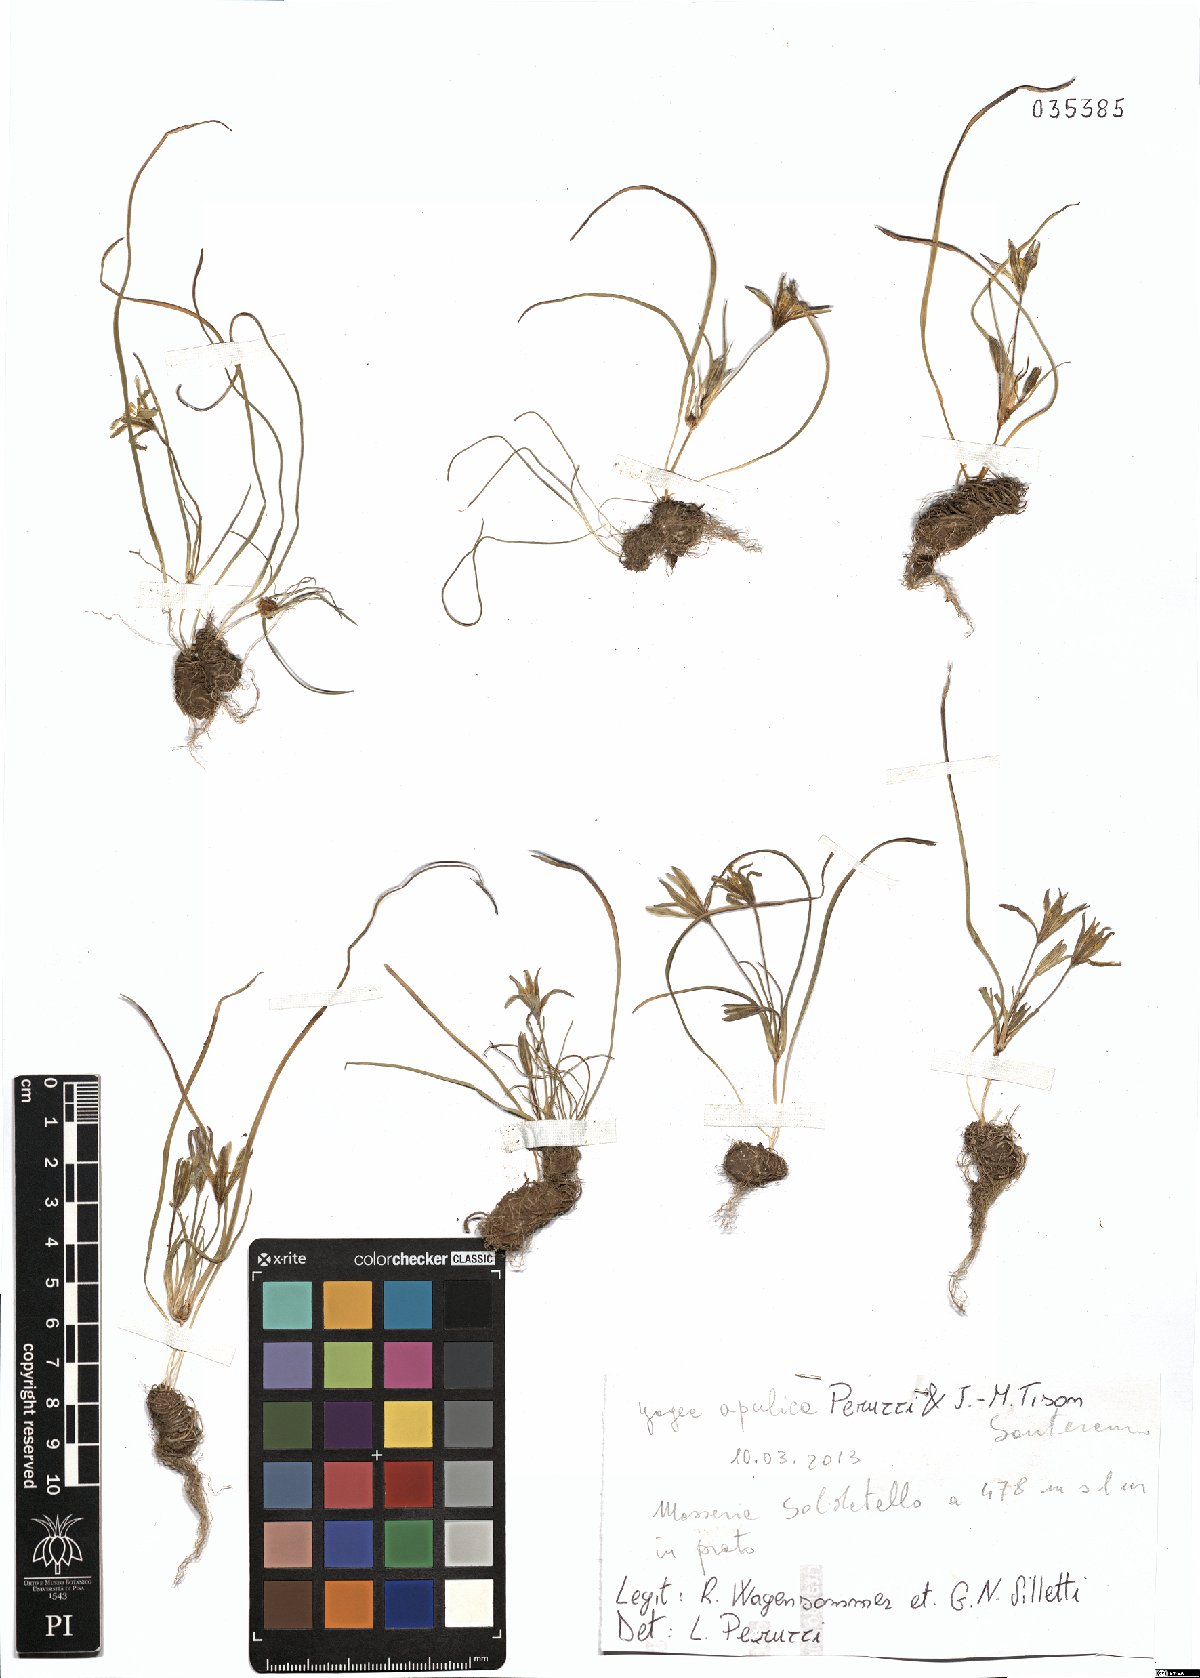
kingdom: Plantae
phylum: Tracheophyta
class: Liliopsida
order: Liliales
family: Liliaceae
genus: Gagea
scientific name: Gagea apulica
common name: Apulian gagea
